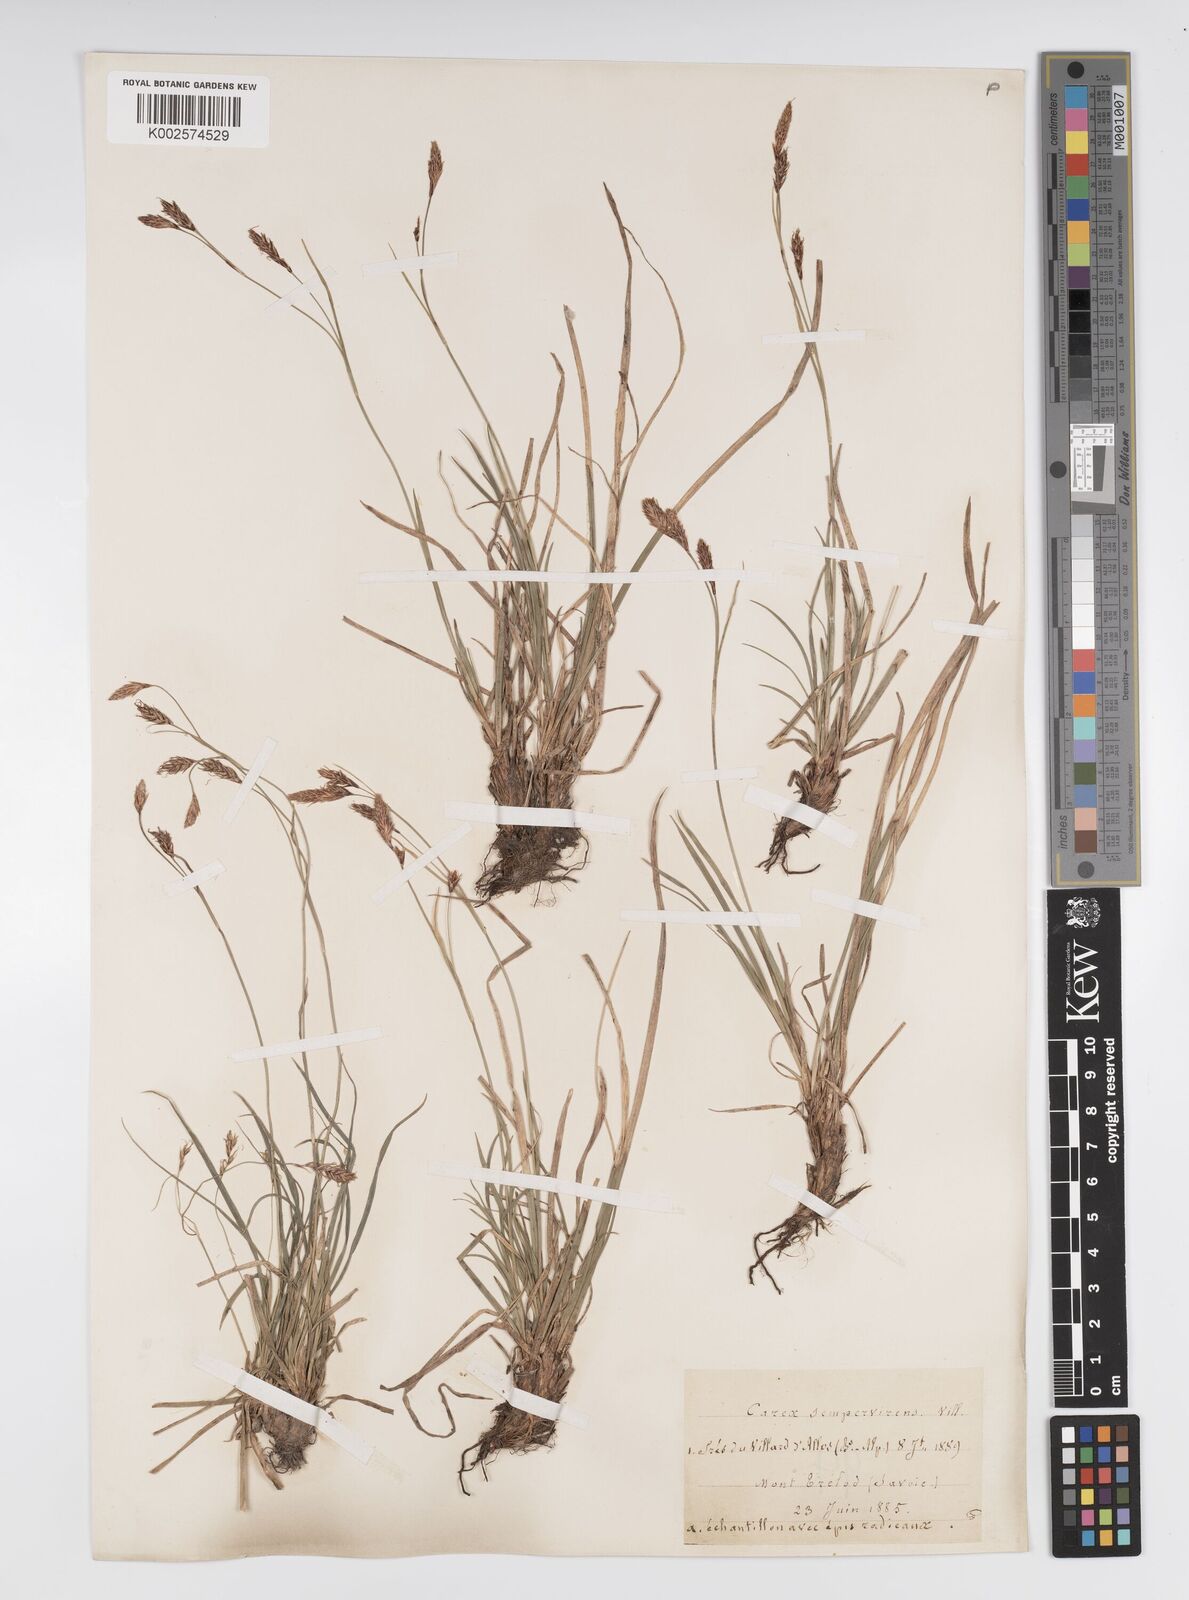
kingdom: Plantae
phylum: Tracheophyta
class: Liliopsida
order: Poales
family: Cyperaceae
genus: Carex
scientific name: Carex sempervirens
